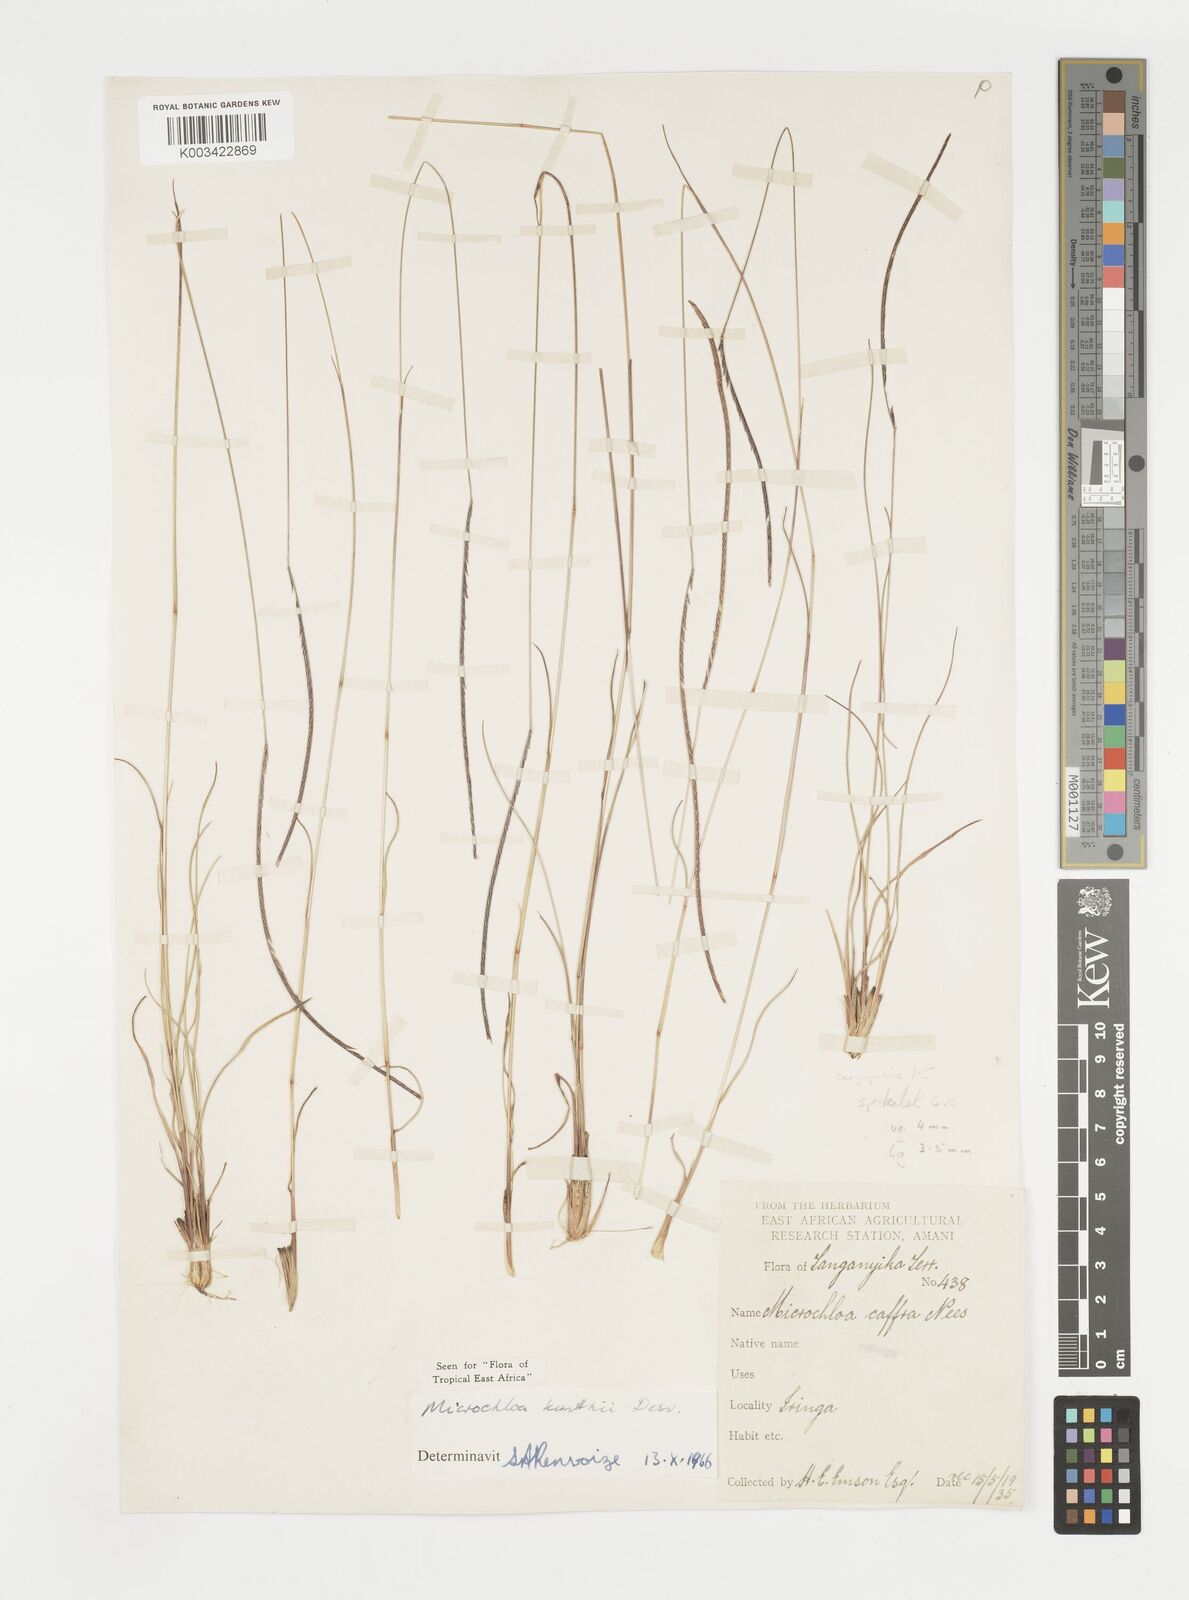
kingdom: Plantae
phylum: Tracheophyta
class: Liliopsida
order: Poales
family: Poaceae
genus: Microchloa
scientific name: Microchloa kunthii
